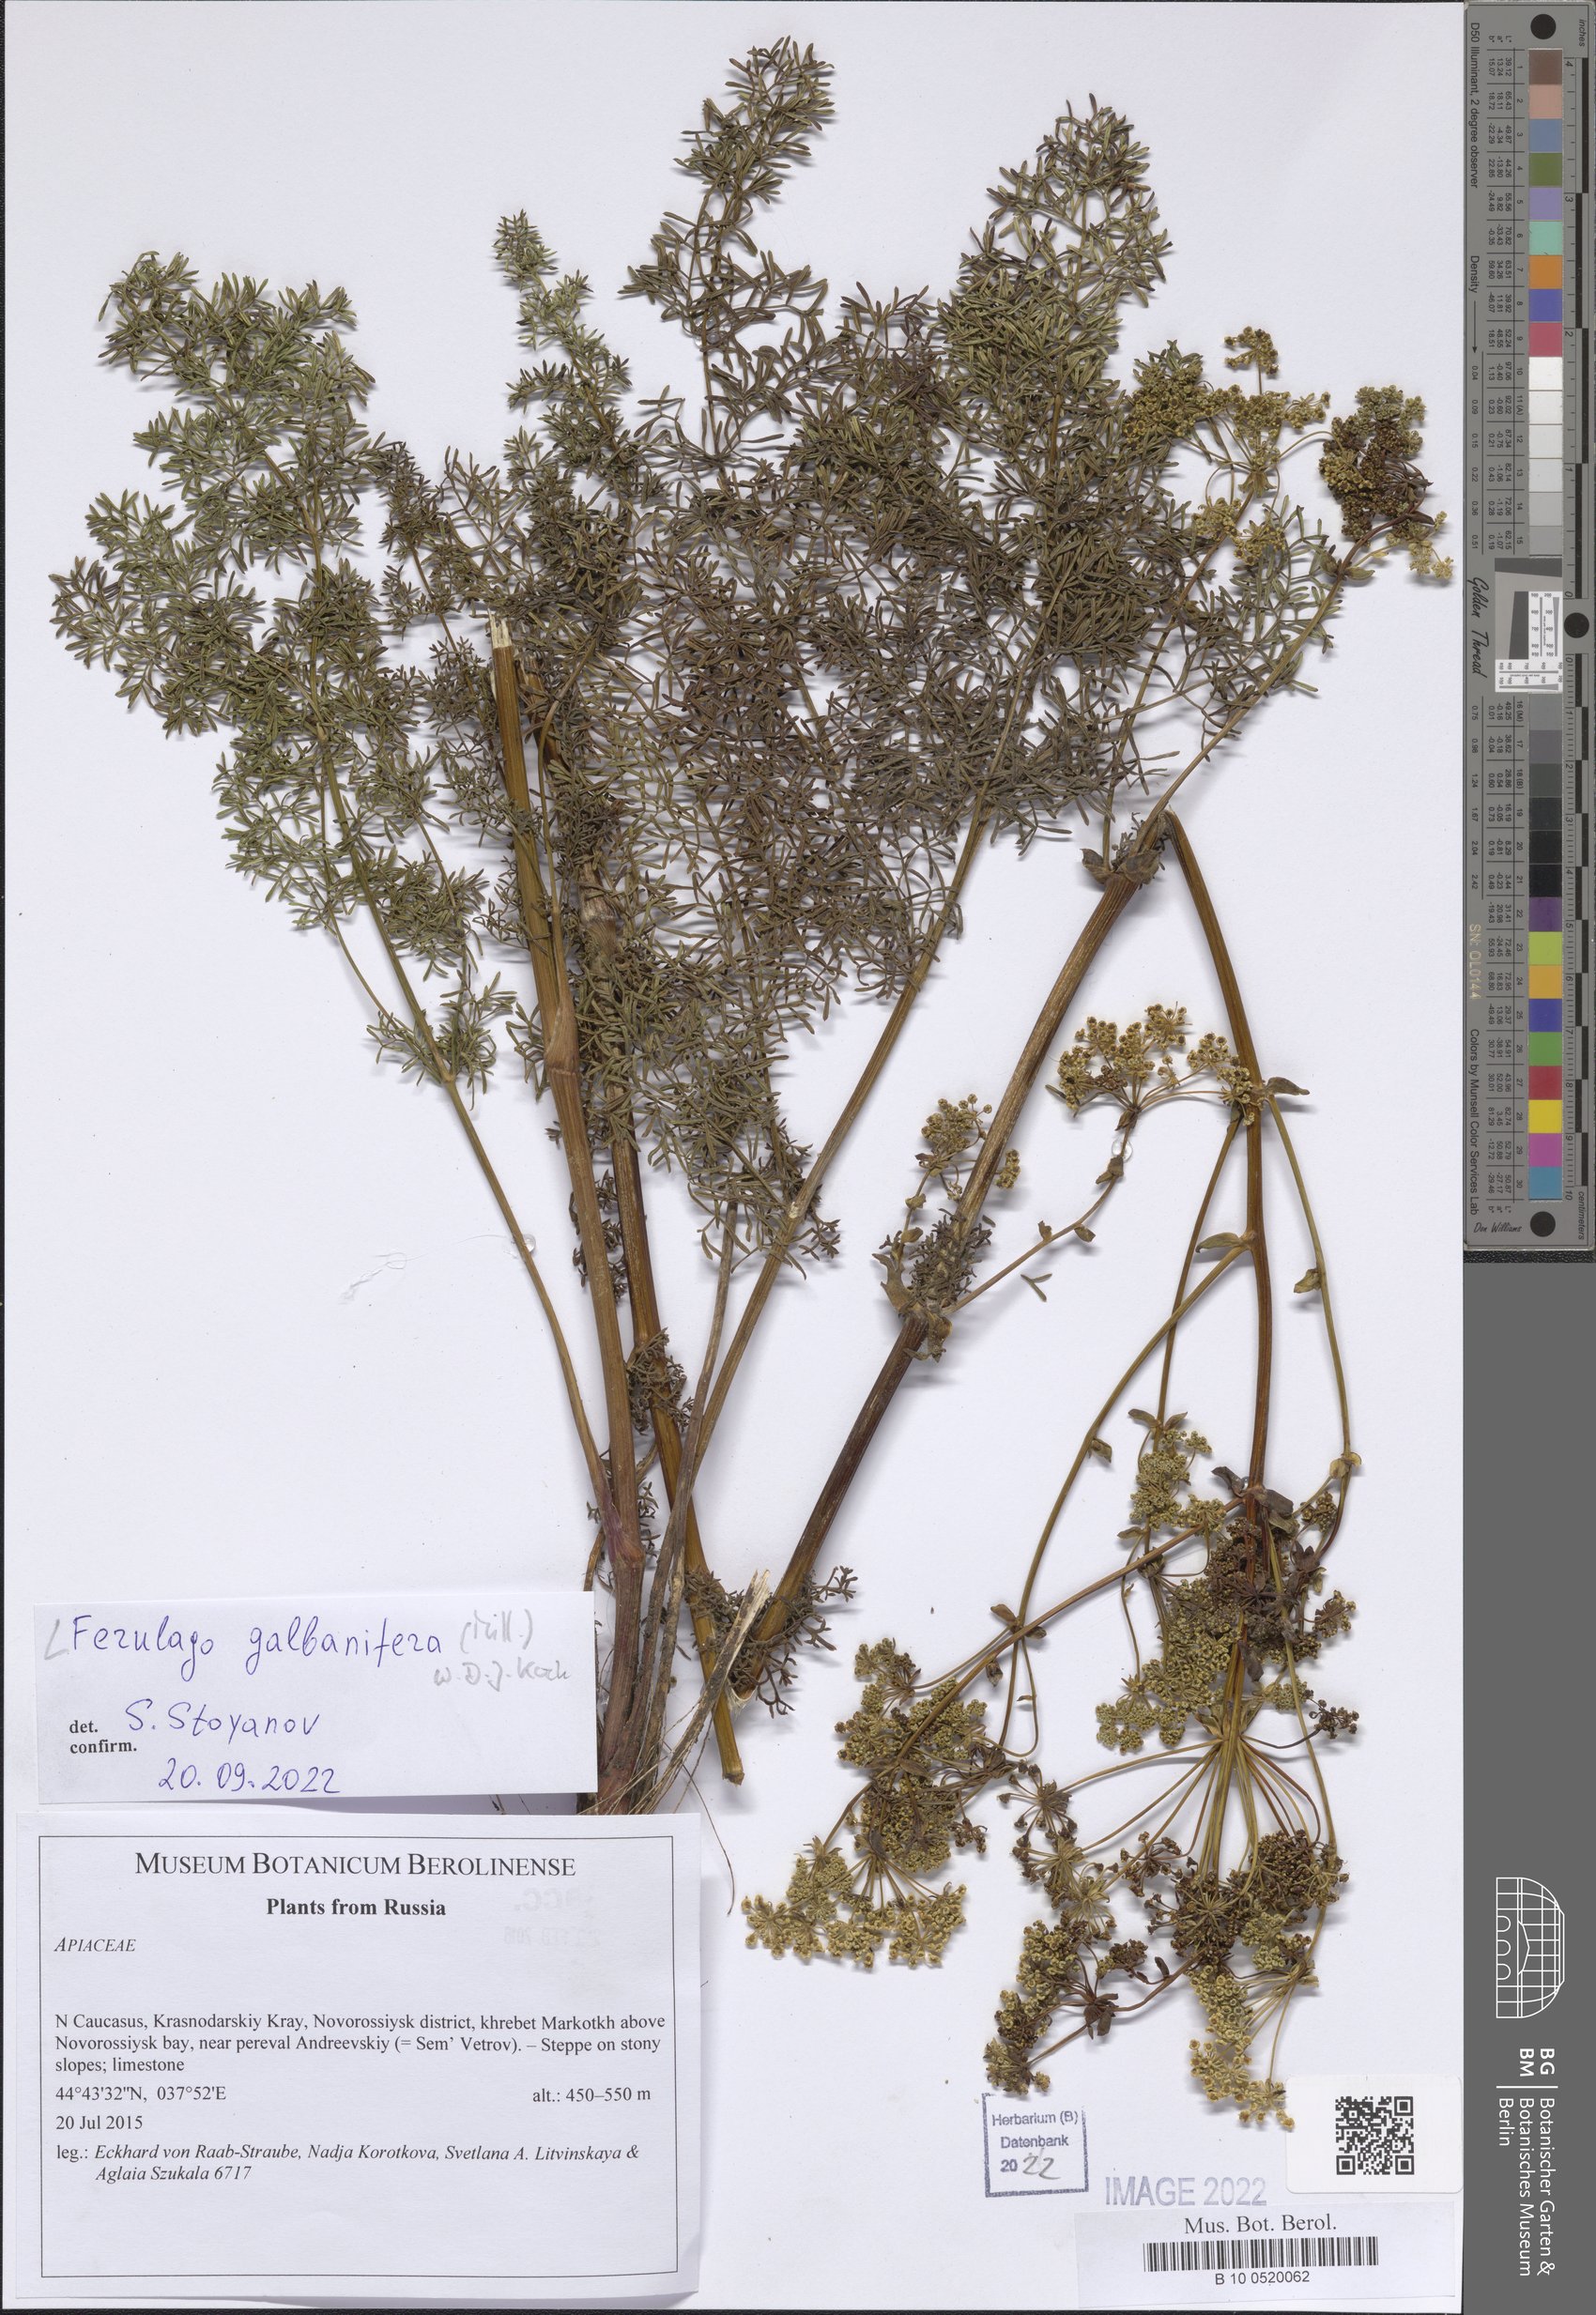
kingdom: Plantae
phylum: Tracheophyta
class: Magnoliopsida
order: Apiales
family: Apiaceae
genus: Ferulago
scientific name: Ferulago galbanifera
